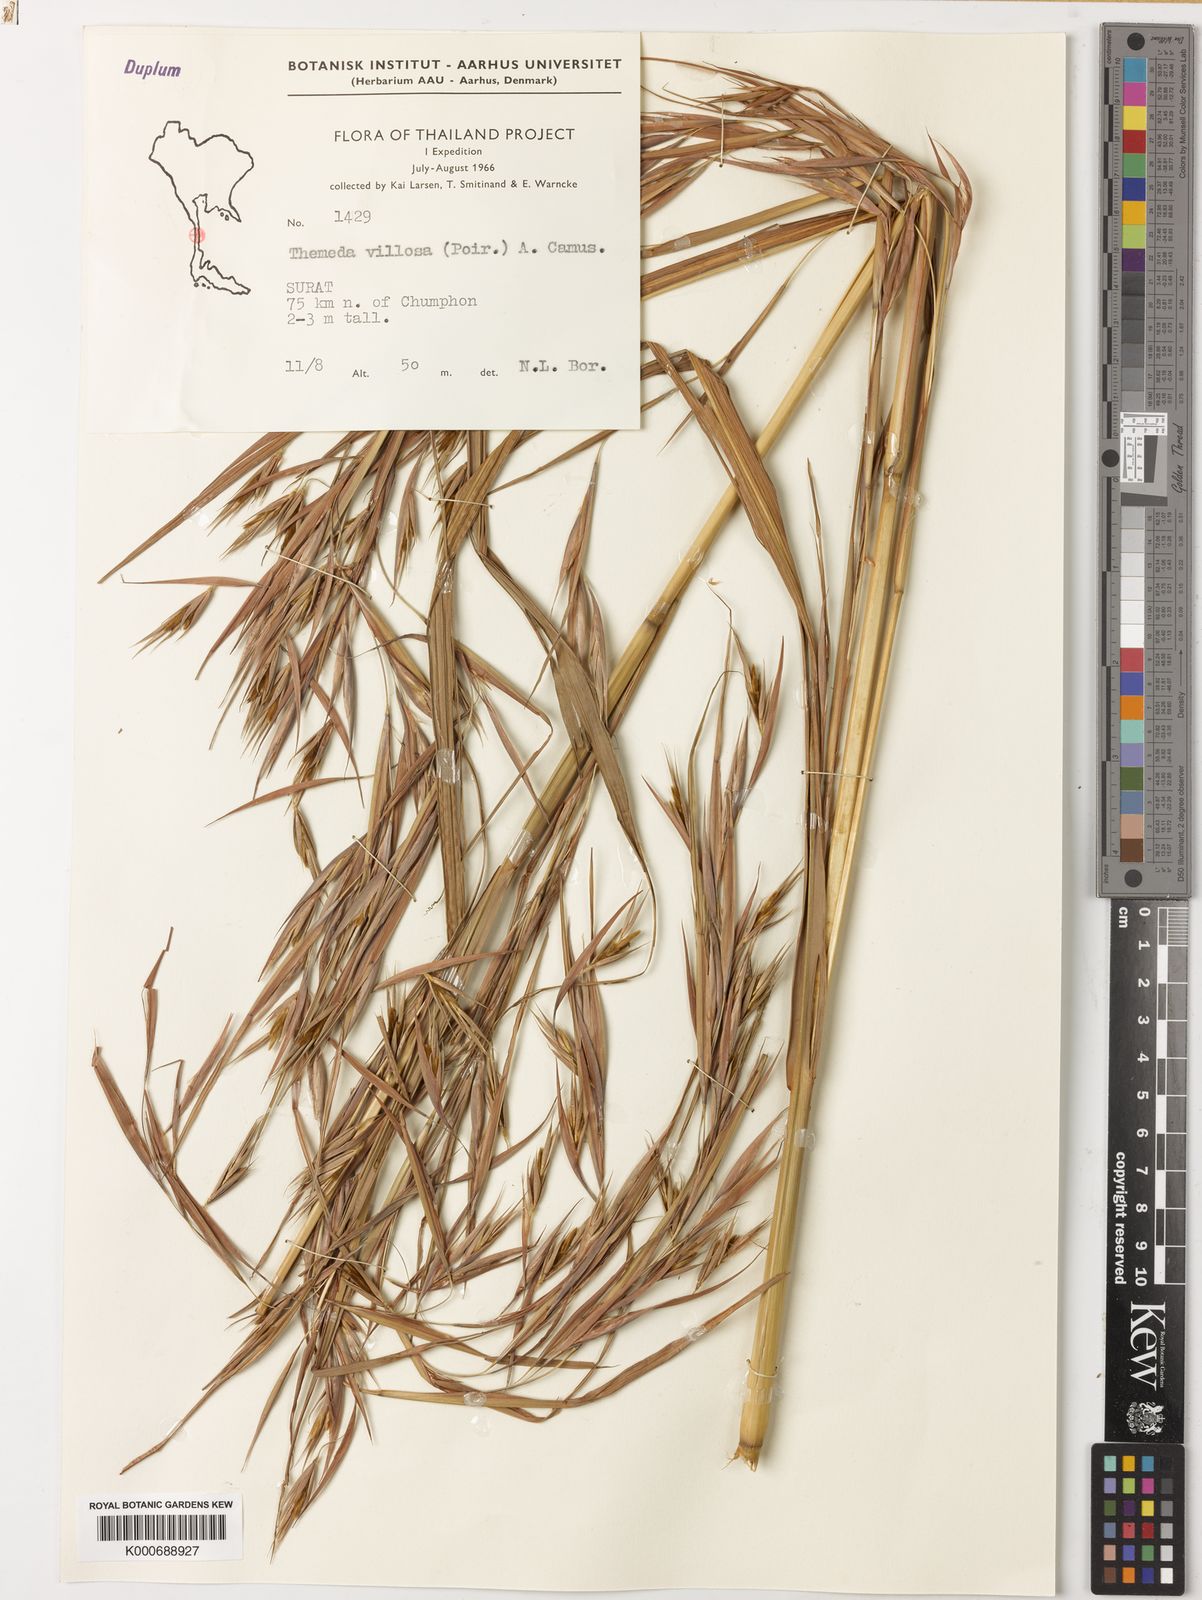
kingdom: Plantae
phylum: Tracheophyta
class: Liliopsida
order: Poales
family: Poaceae
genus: Themeda
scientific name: Themeda villosa
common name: Silky kangaroo grass
